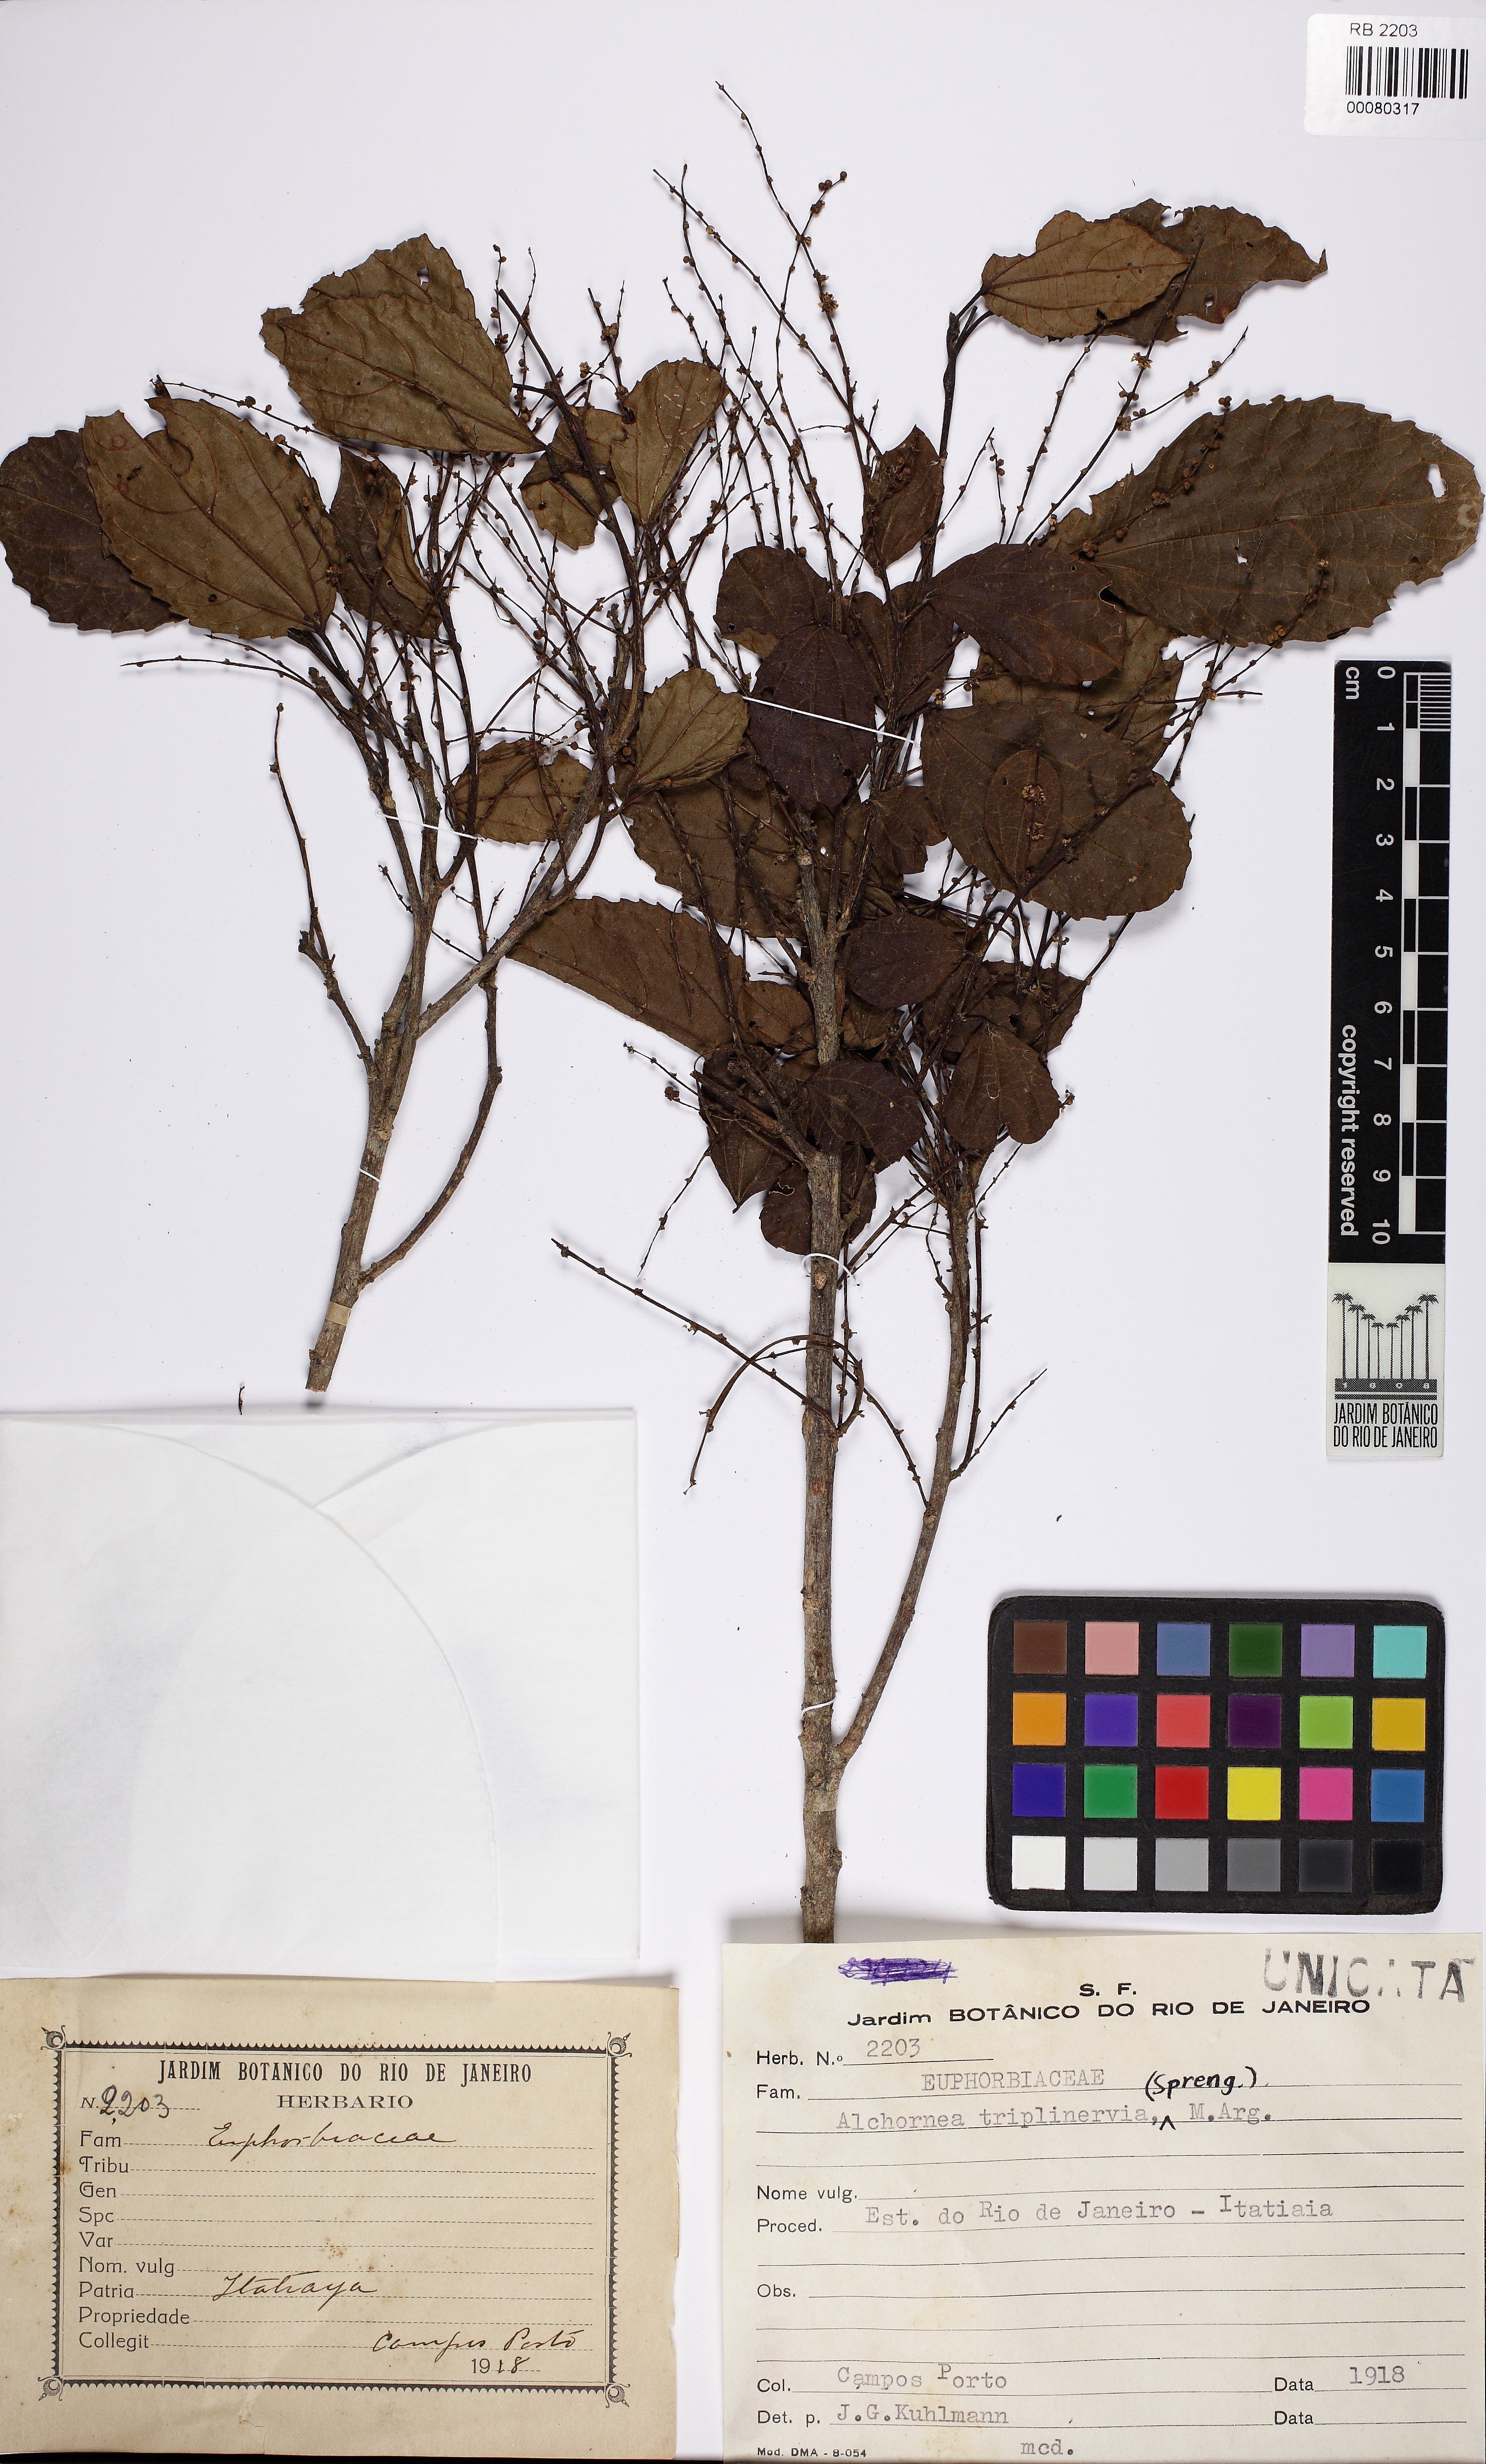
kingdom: Plantae
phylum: Tracheophyta
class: Magnoliopsida
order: Malpighiales
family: Euphorbiaceae
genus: Alchornea
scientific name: Alchornea triplinervia
